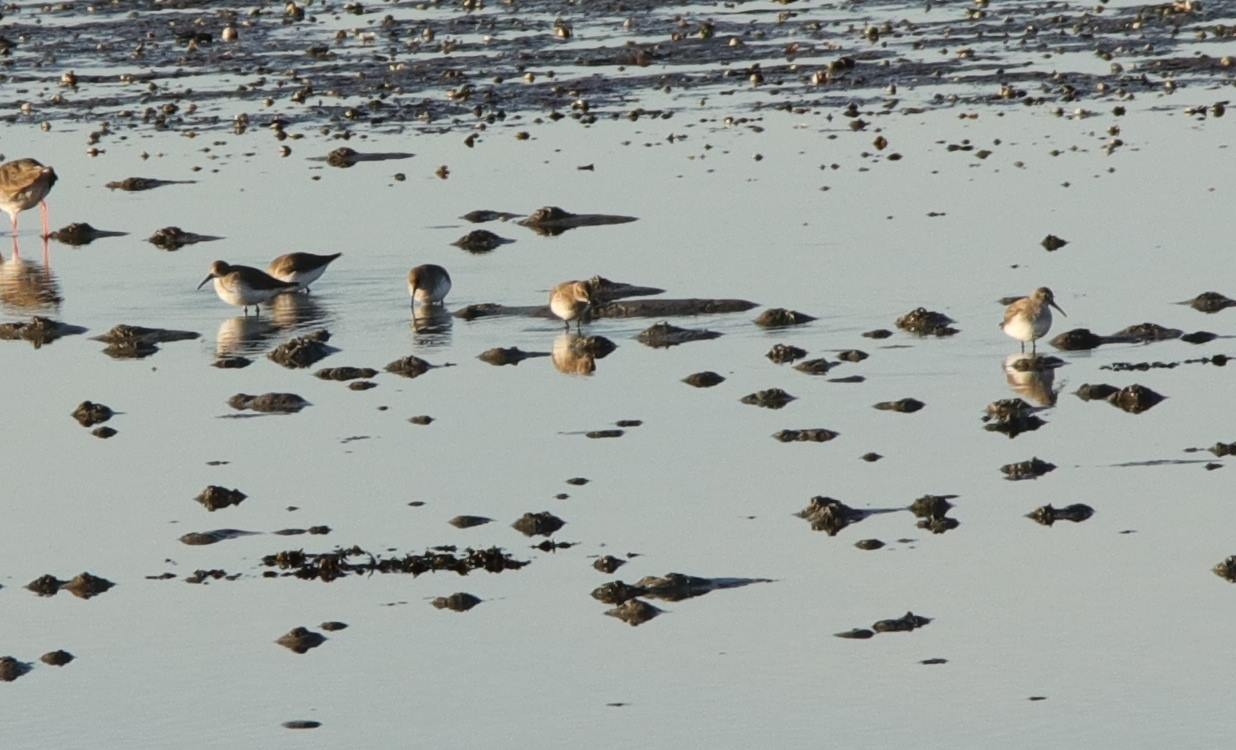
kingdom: Animalia
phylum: Chordata
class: Aves
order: Charadriiformes
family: Scolopacidae
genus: Tringa
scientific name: Tringa totanus
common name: Rødben
